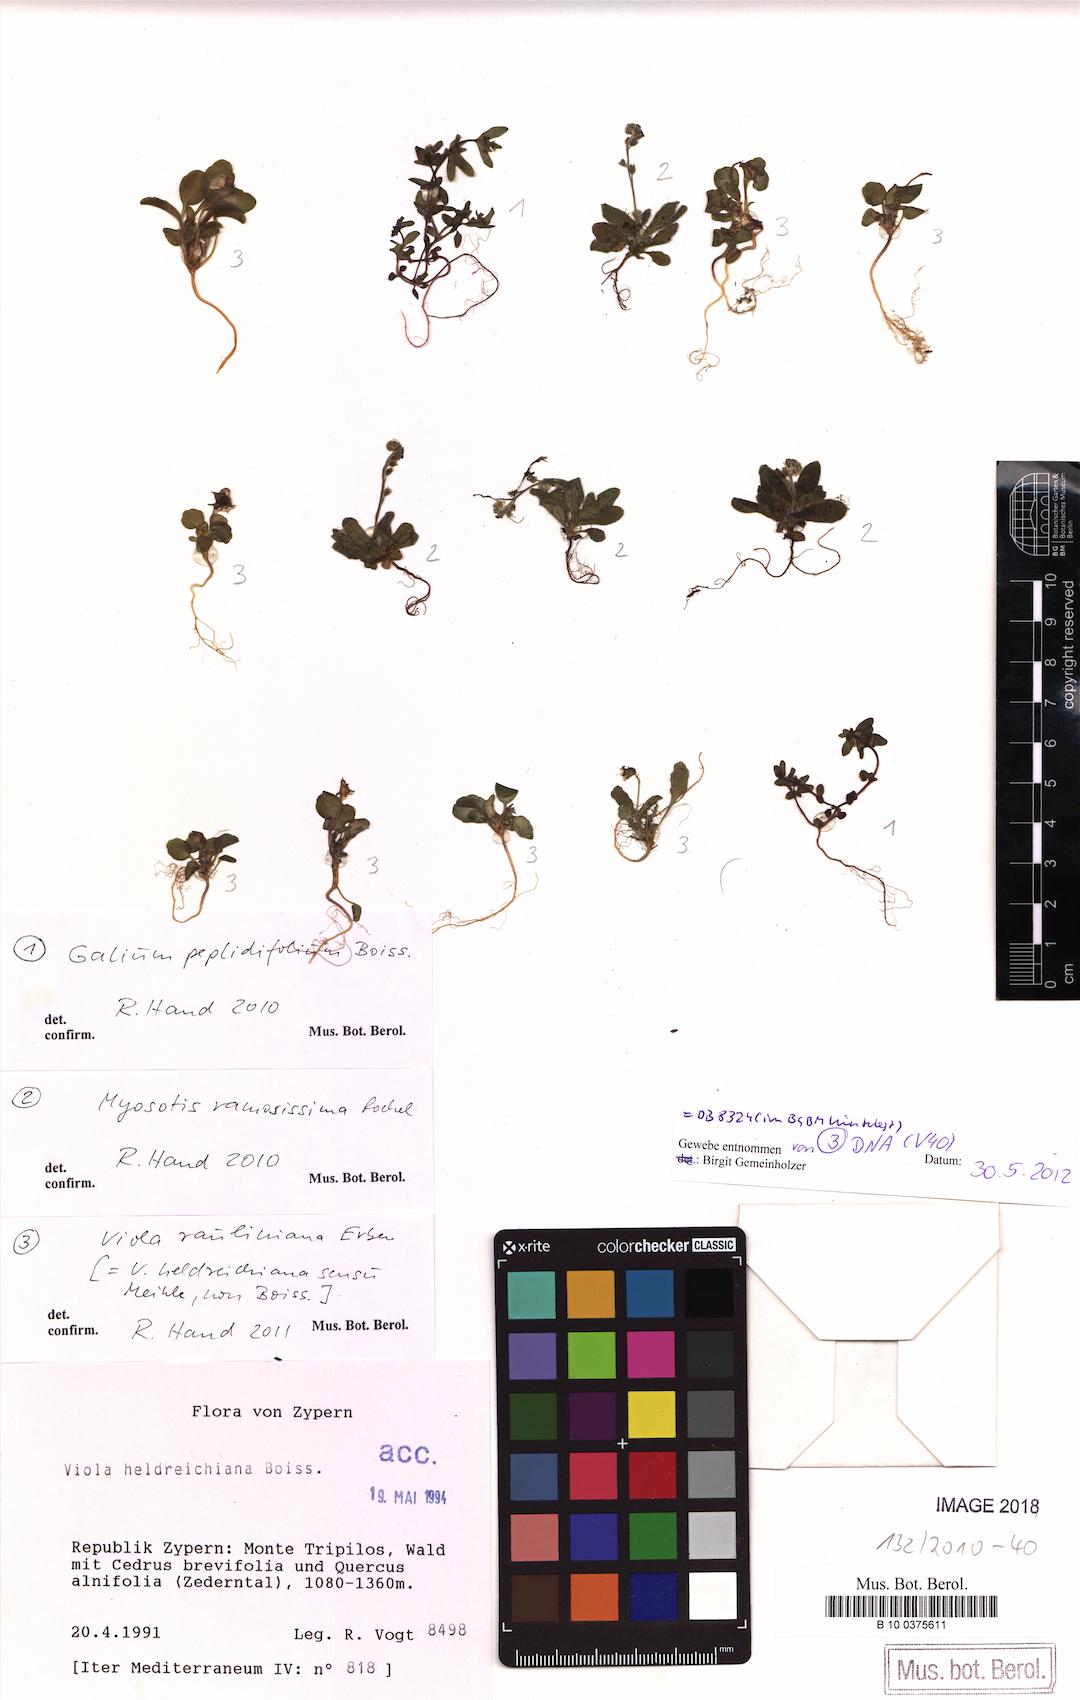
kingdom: Plantae
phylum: Tracheophyta
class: Magnoliopsida
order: Malpighiales
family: Violaceae
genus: Viola
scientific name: Viola rauliniana
